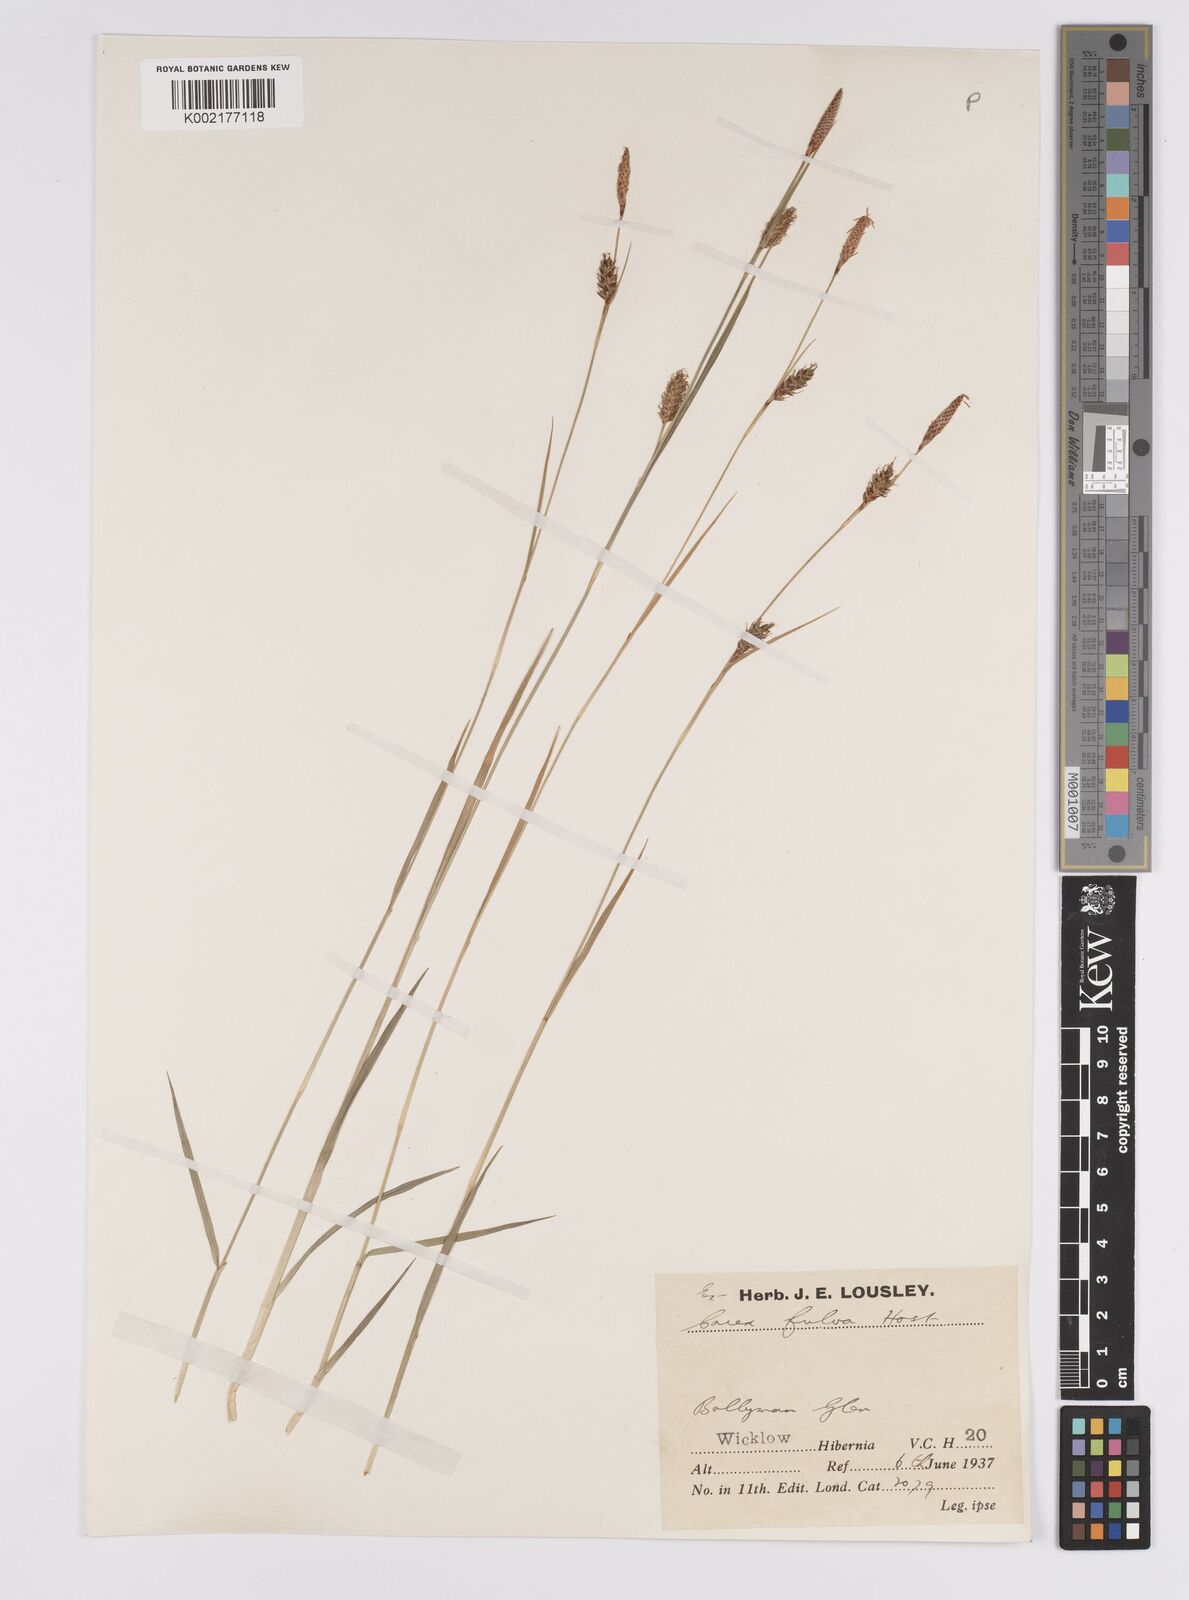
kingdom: Plantae
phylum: Tracheophyta
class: Liliopsida
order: Poales
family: Cyperaceae
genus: Carex
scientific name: Carex hostiana
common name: Tawny sedge
